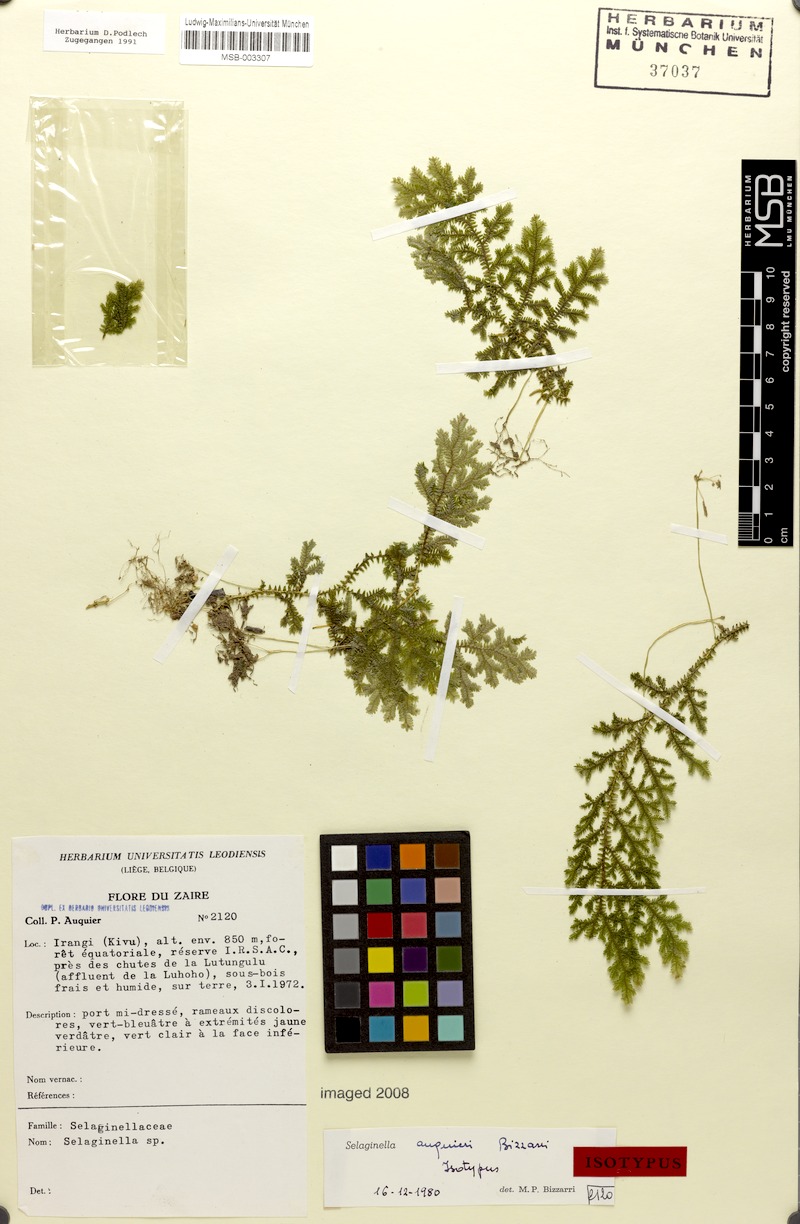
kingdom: Plantae
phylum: Tracheophyta
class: Lycopodiopsida
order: Selaginellales
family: Selaginellaceae
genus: Selaginella
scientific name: Selaginella auquieri
